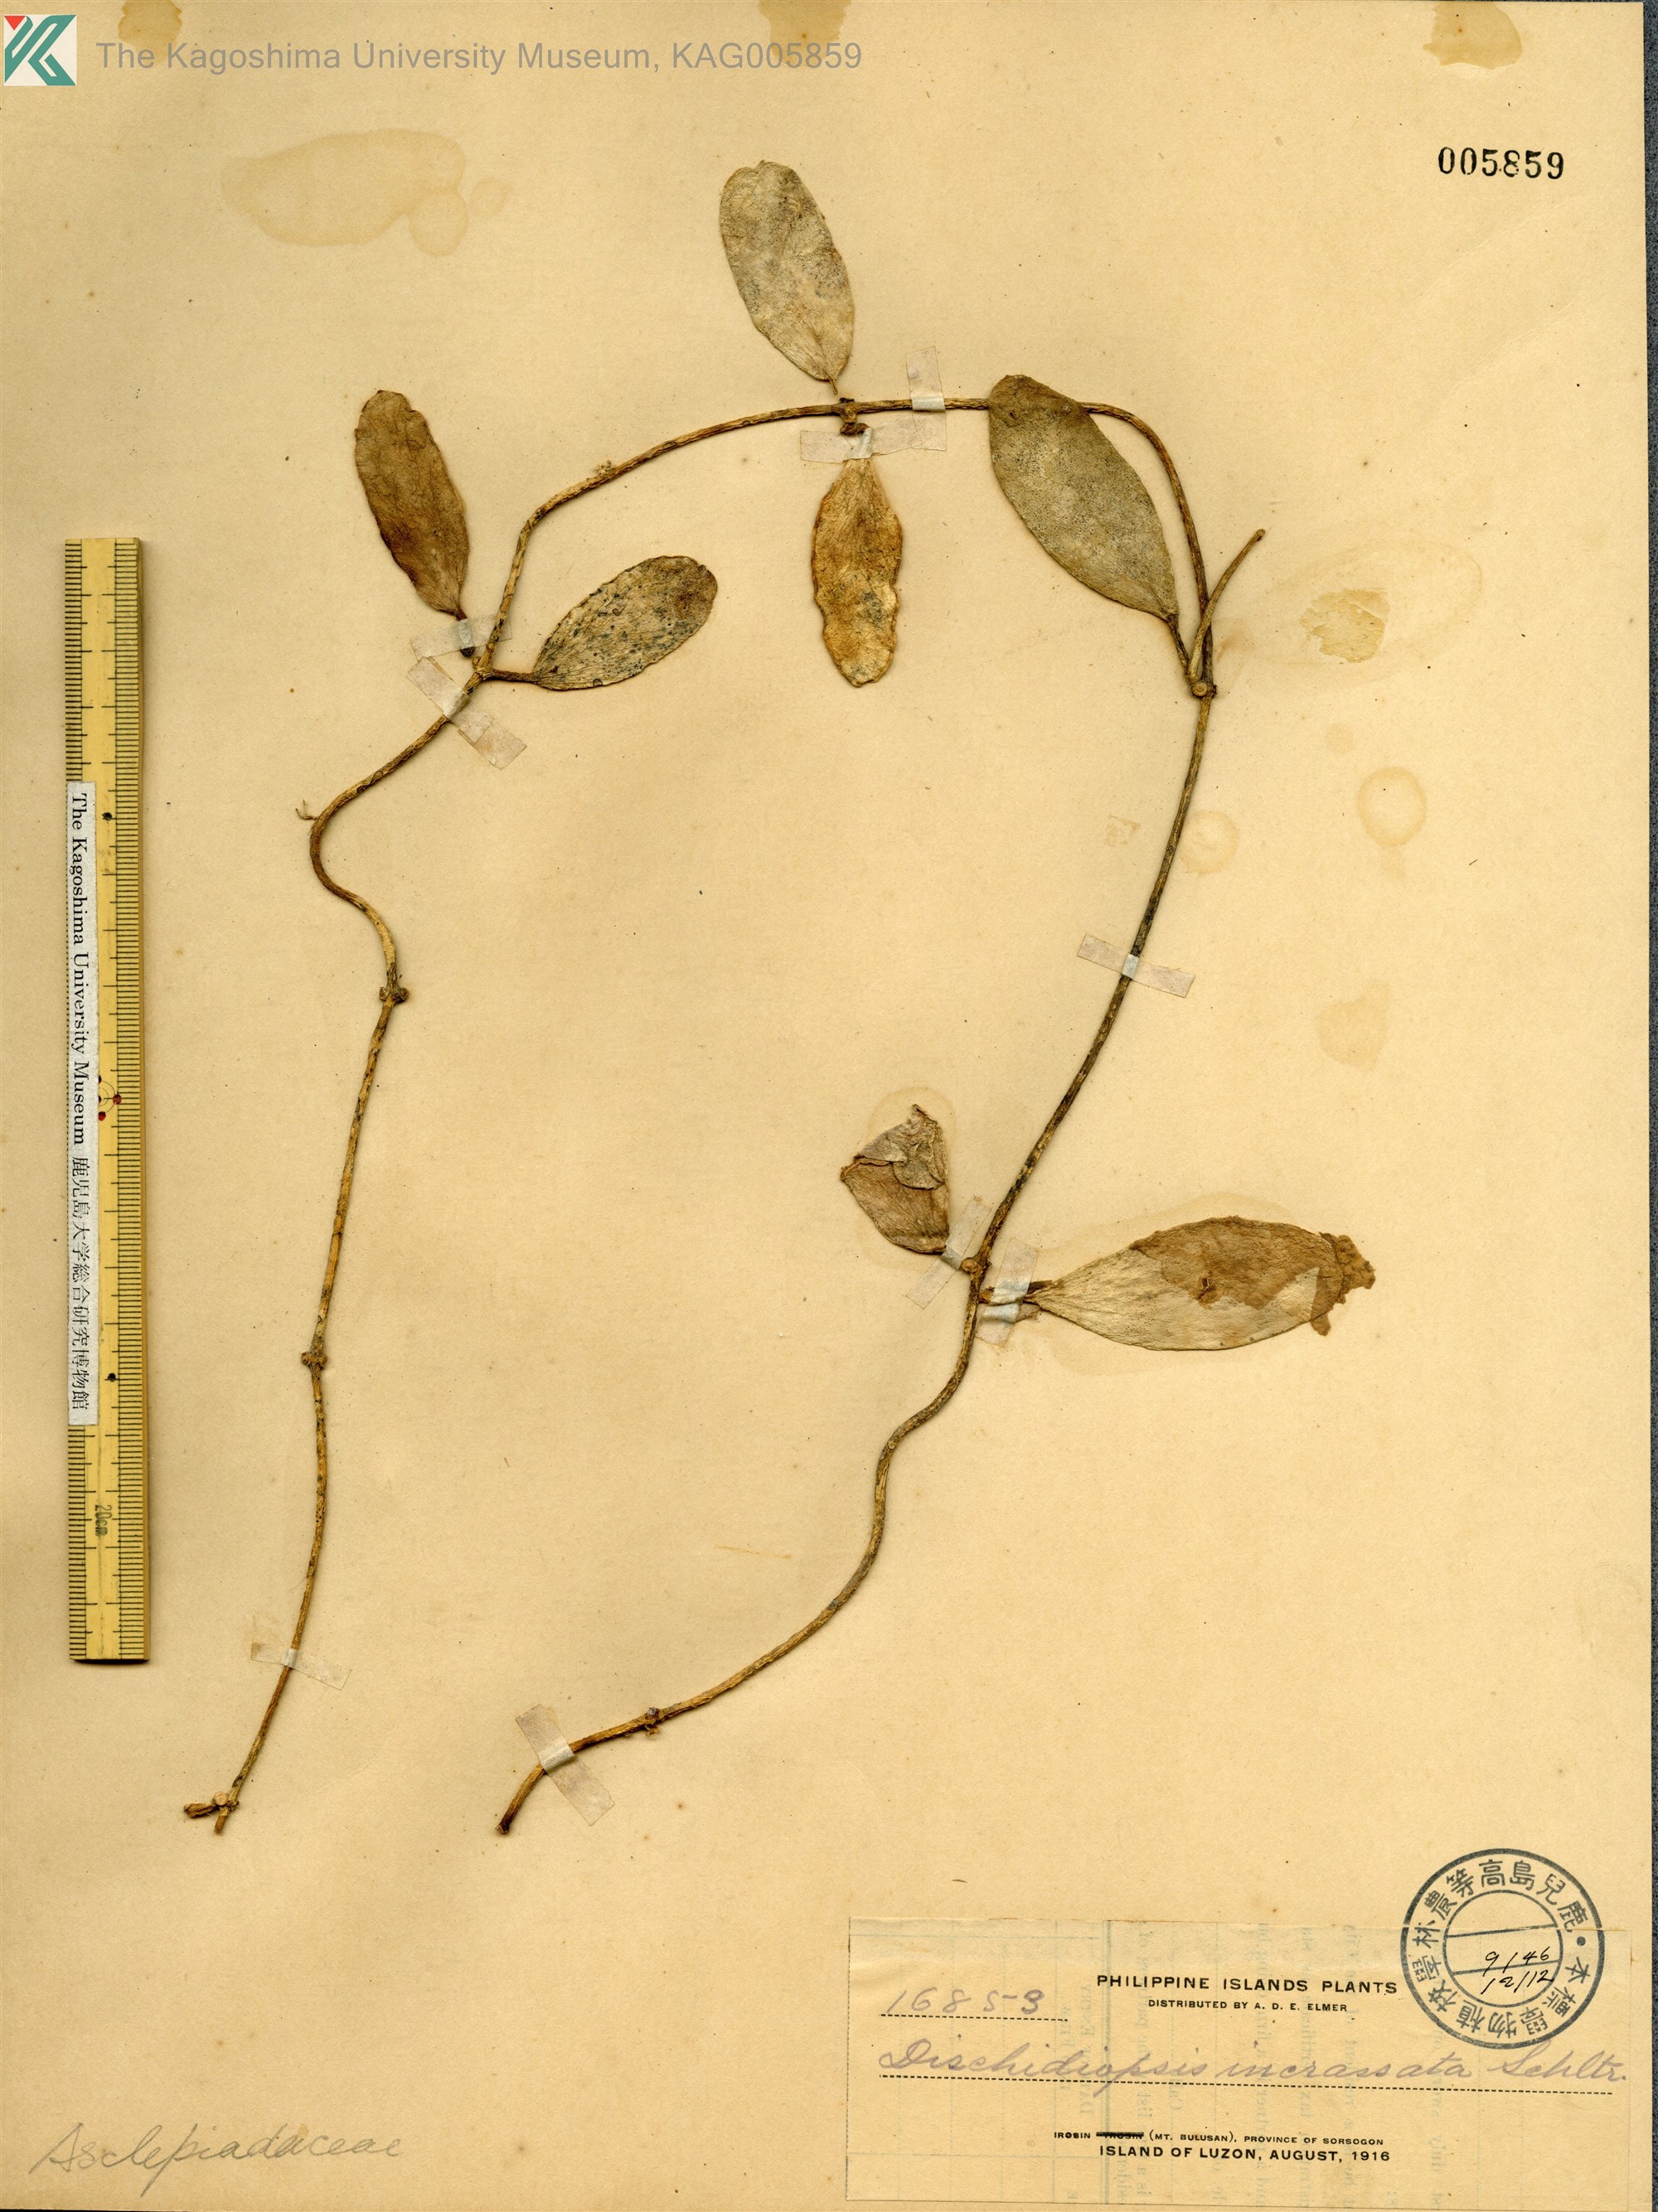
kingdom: Plantae
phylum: Tracheophyta
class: Magnoliopsida
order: Gentianales
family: Apocynaceae
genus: Dischidia
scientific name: Dischidia incrassata
